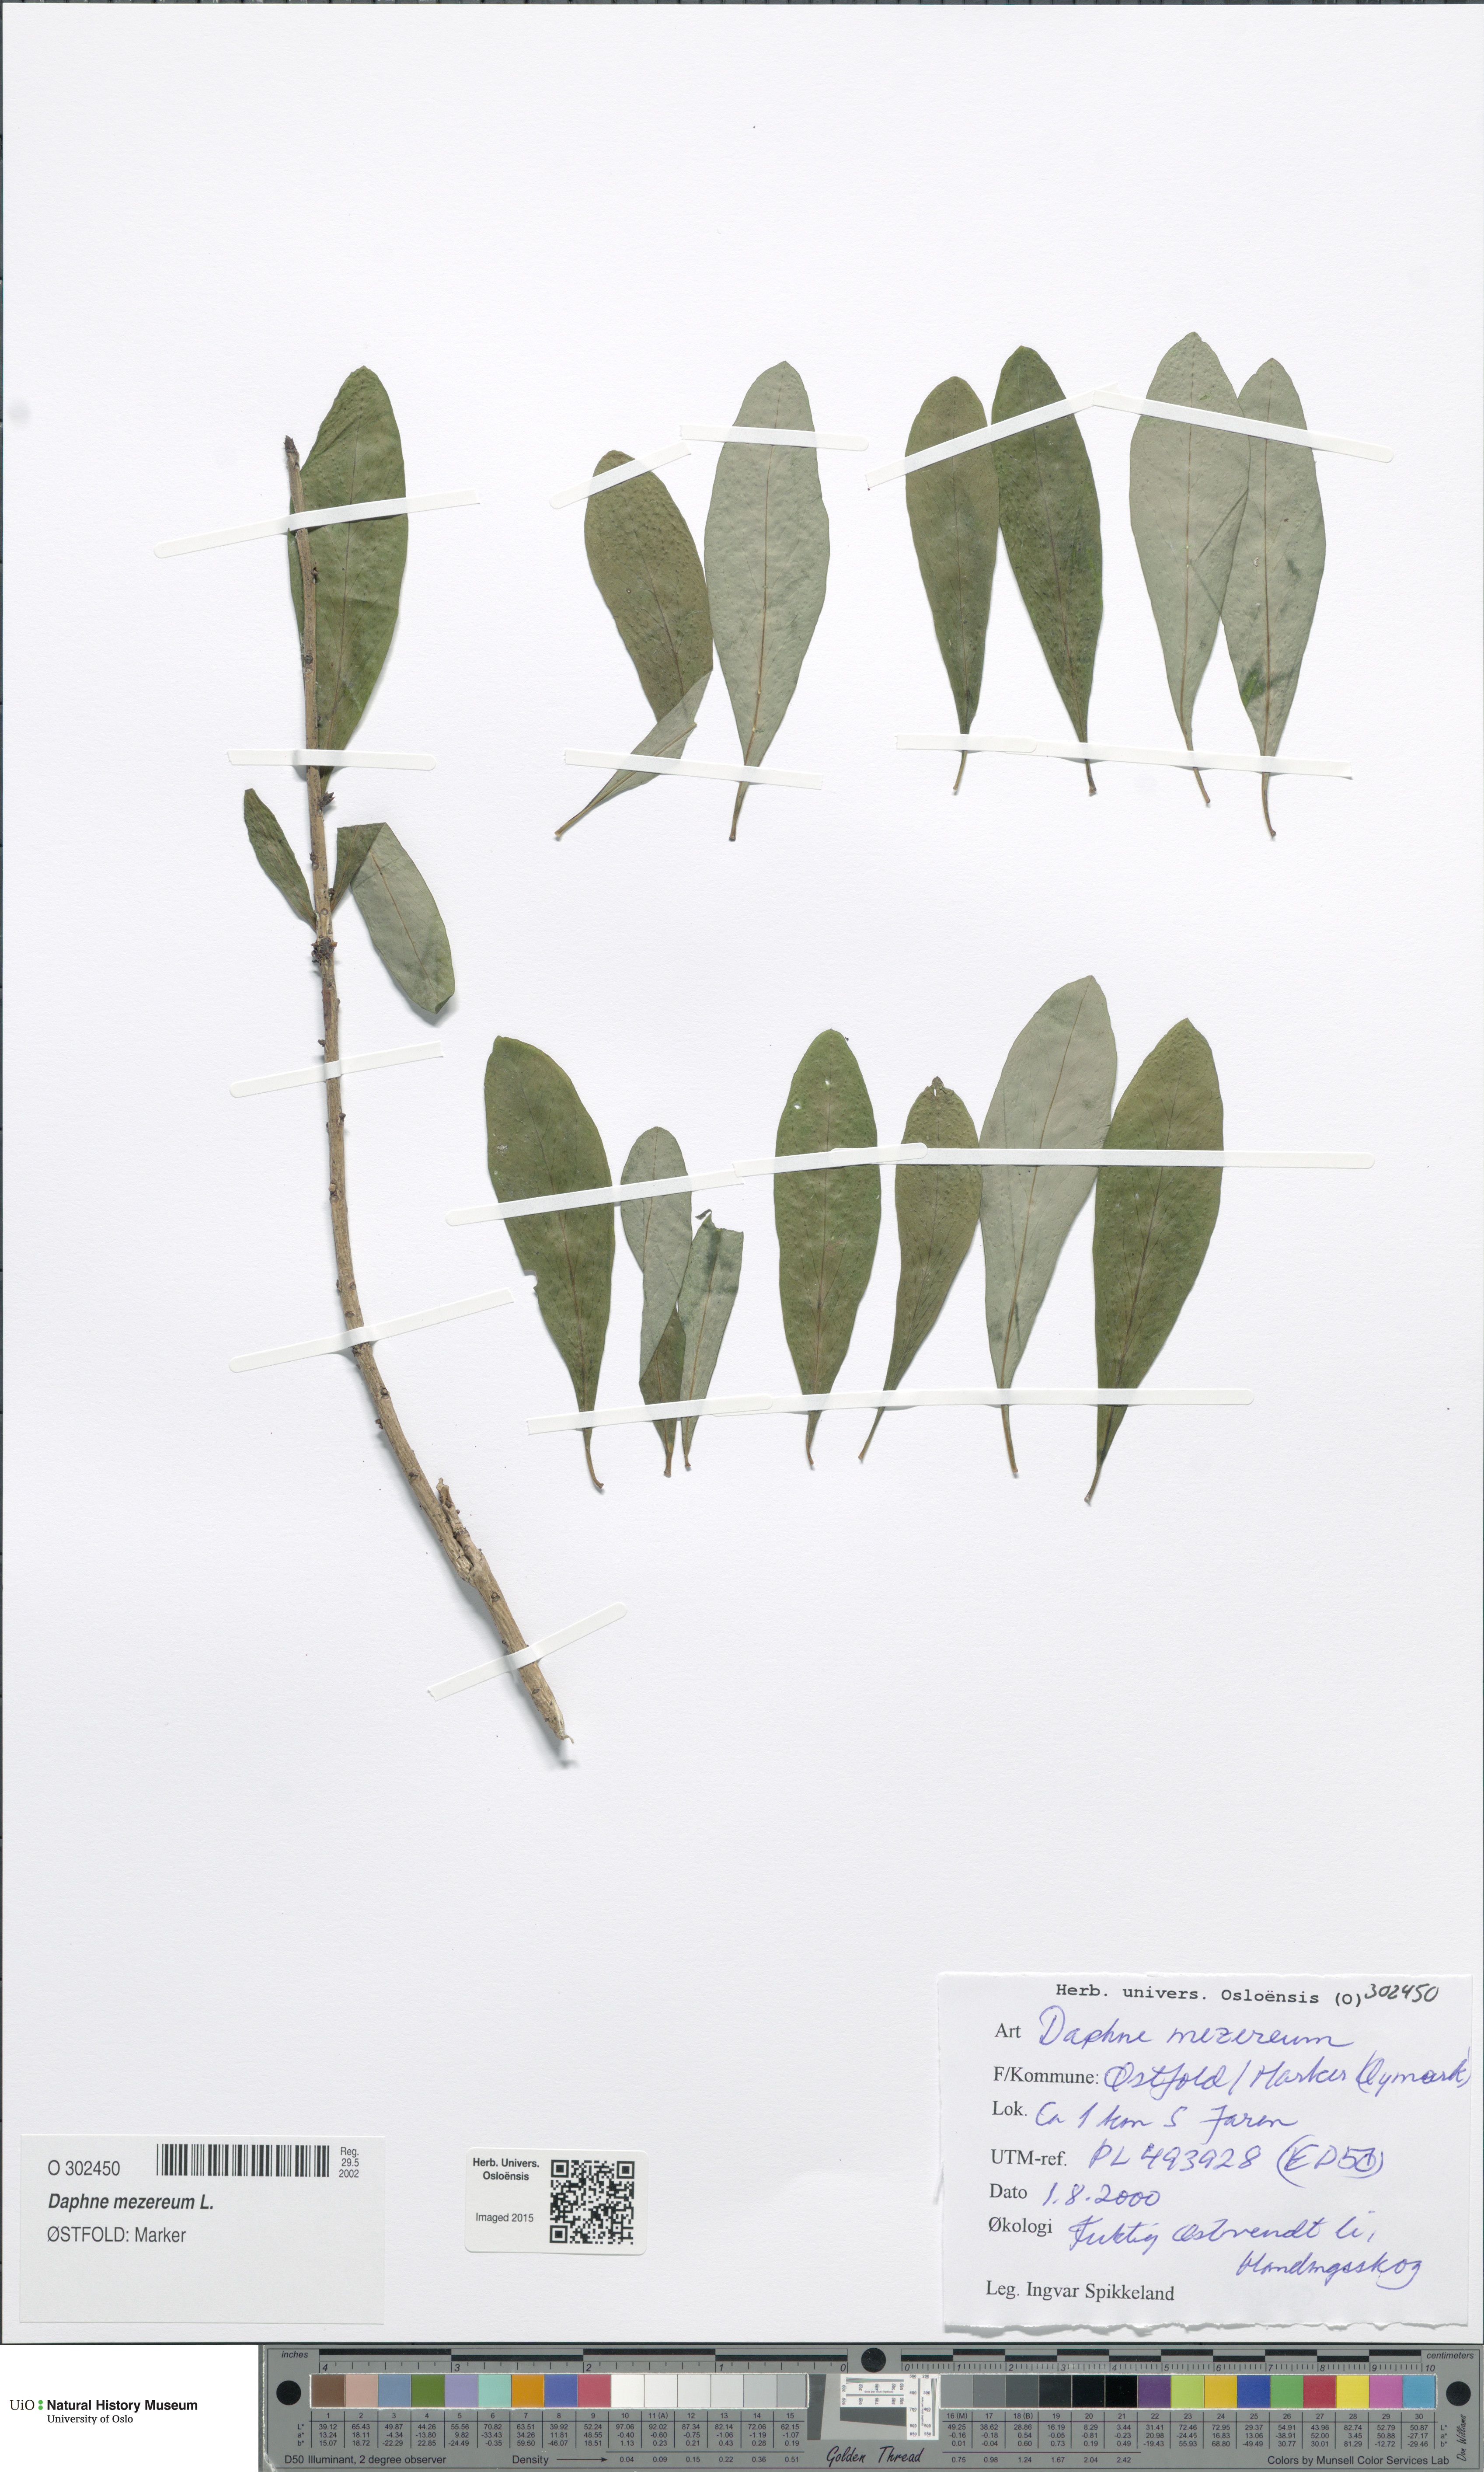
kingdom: Plantae
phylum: Tracheophyta
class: Magnoliopsida
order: Malvales
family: Thymelaeaceae
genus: Daphne
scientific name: Daphne mezereum
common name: Mezereon
